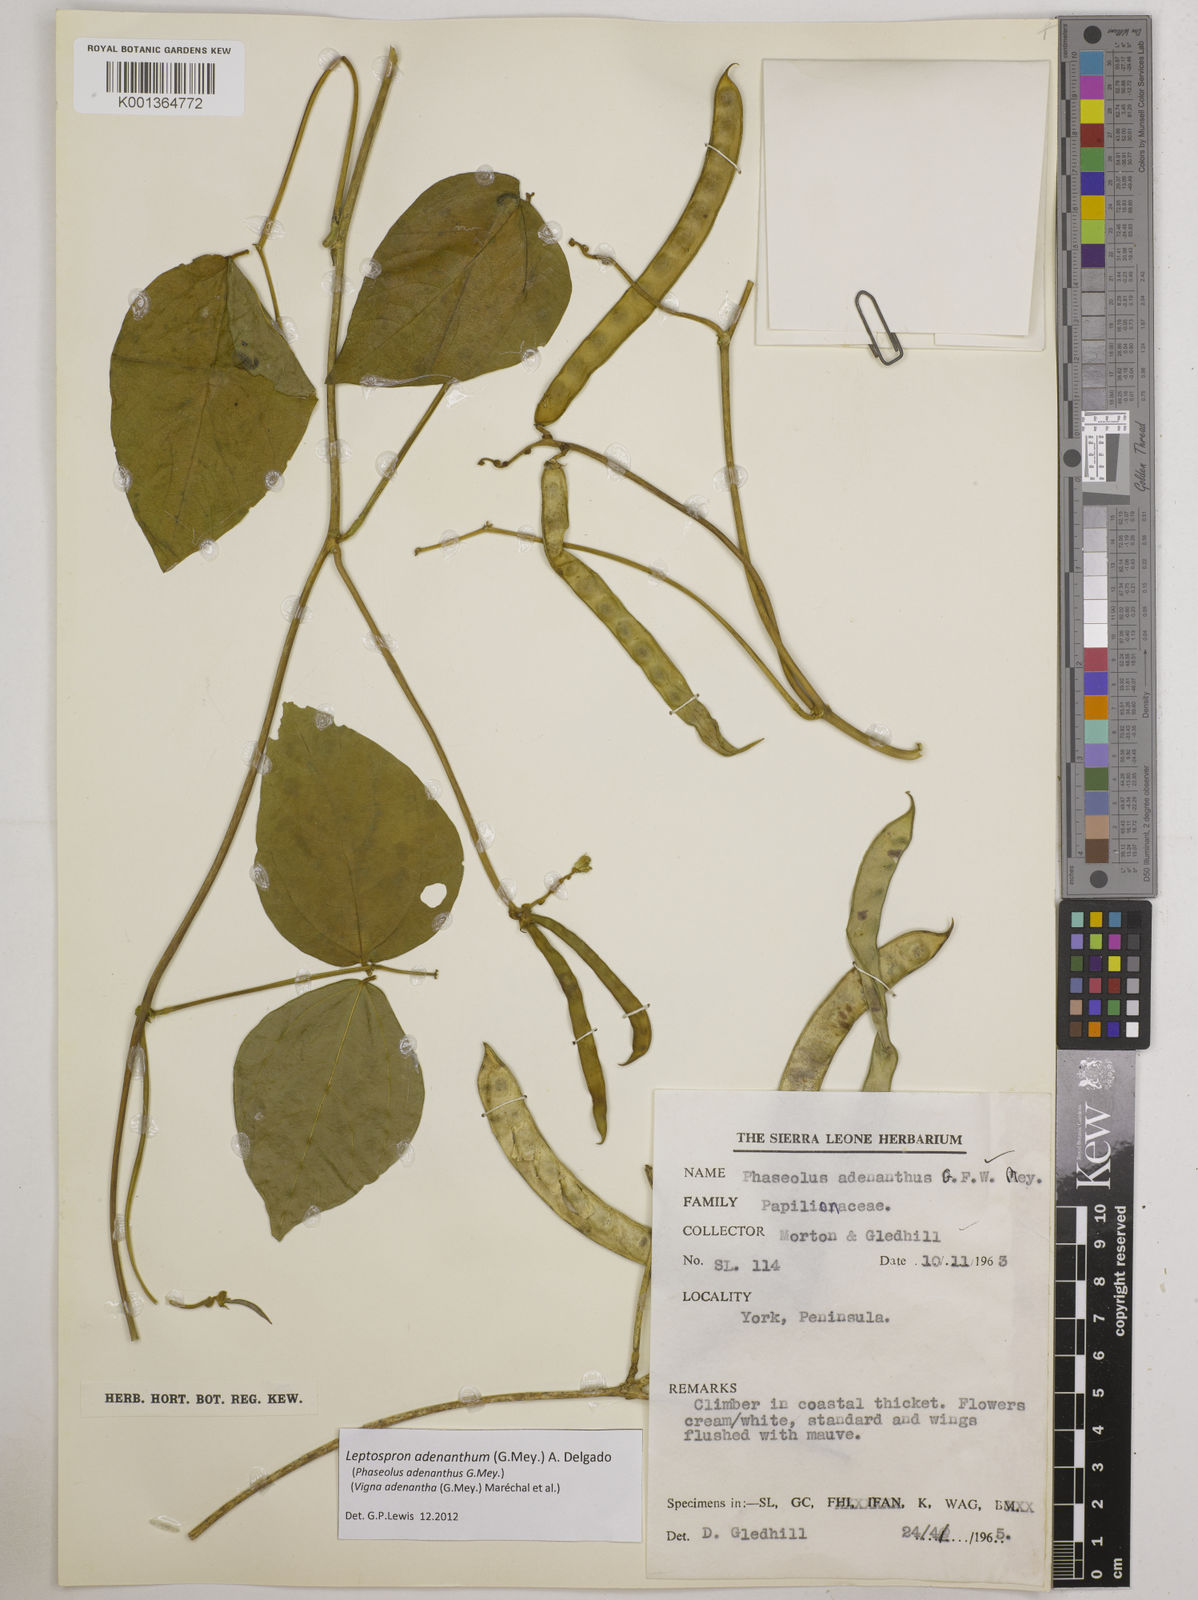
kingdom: Plantae
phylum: Tracheophyta
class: Magnoliopsida
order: Fabales
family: Fabaceae
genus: Leptospron
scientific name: Leptospron adenanthum
